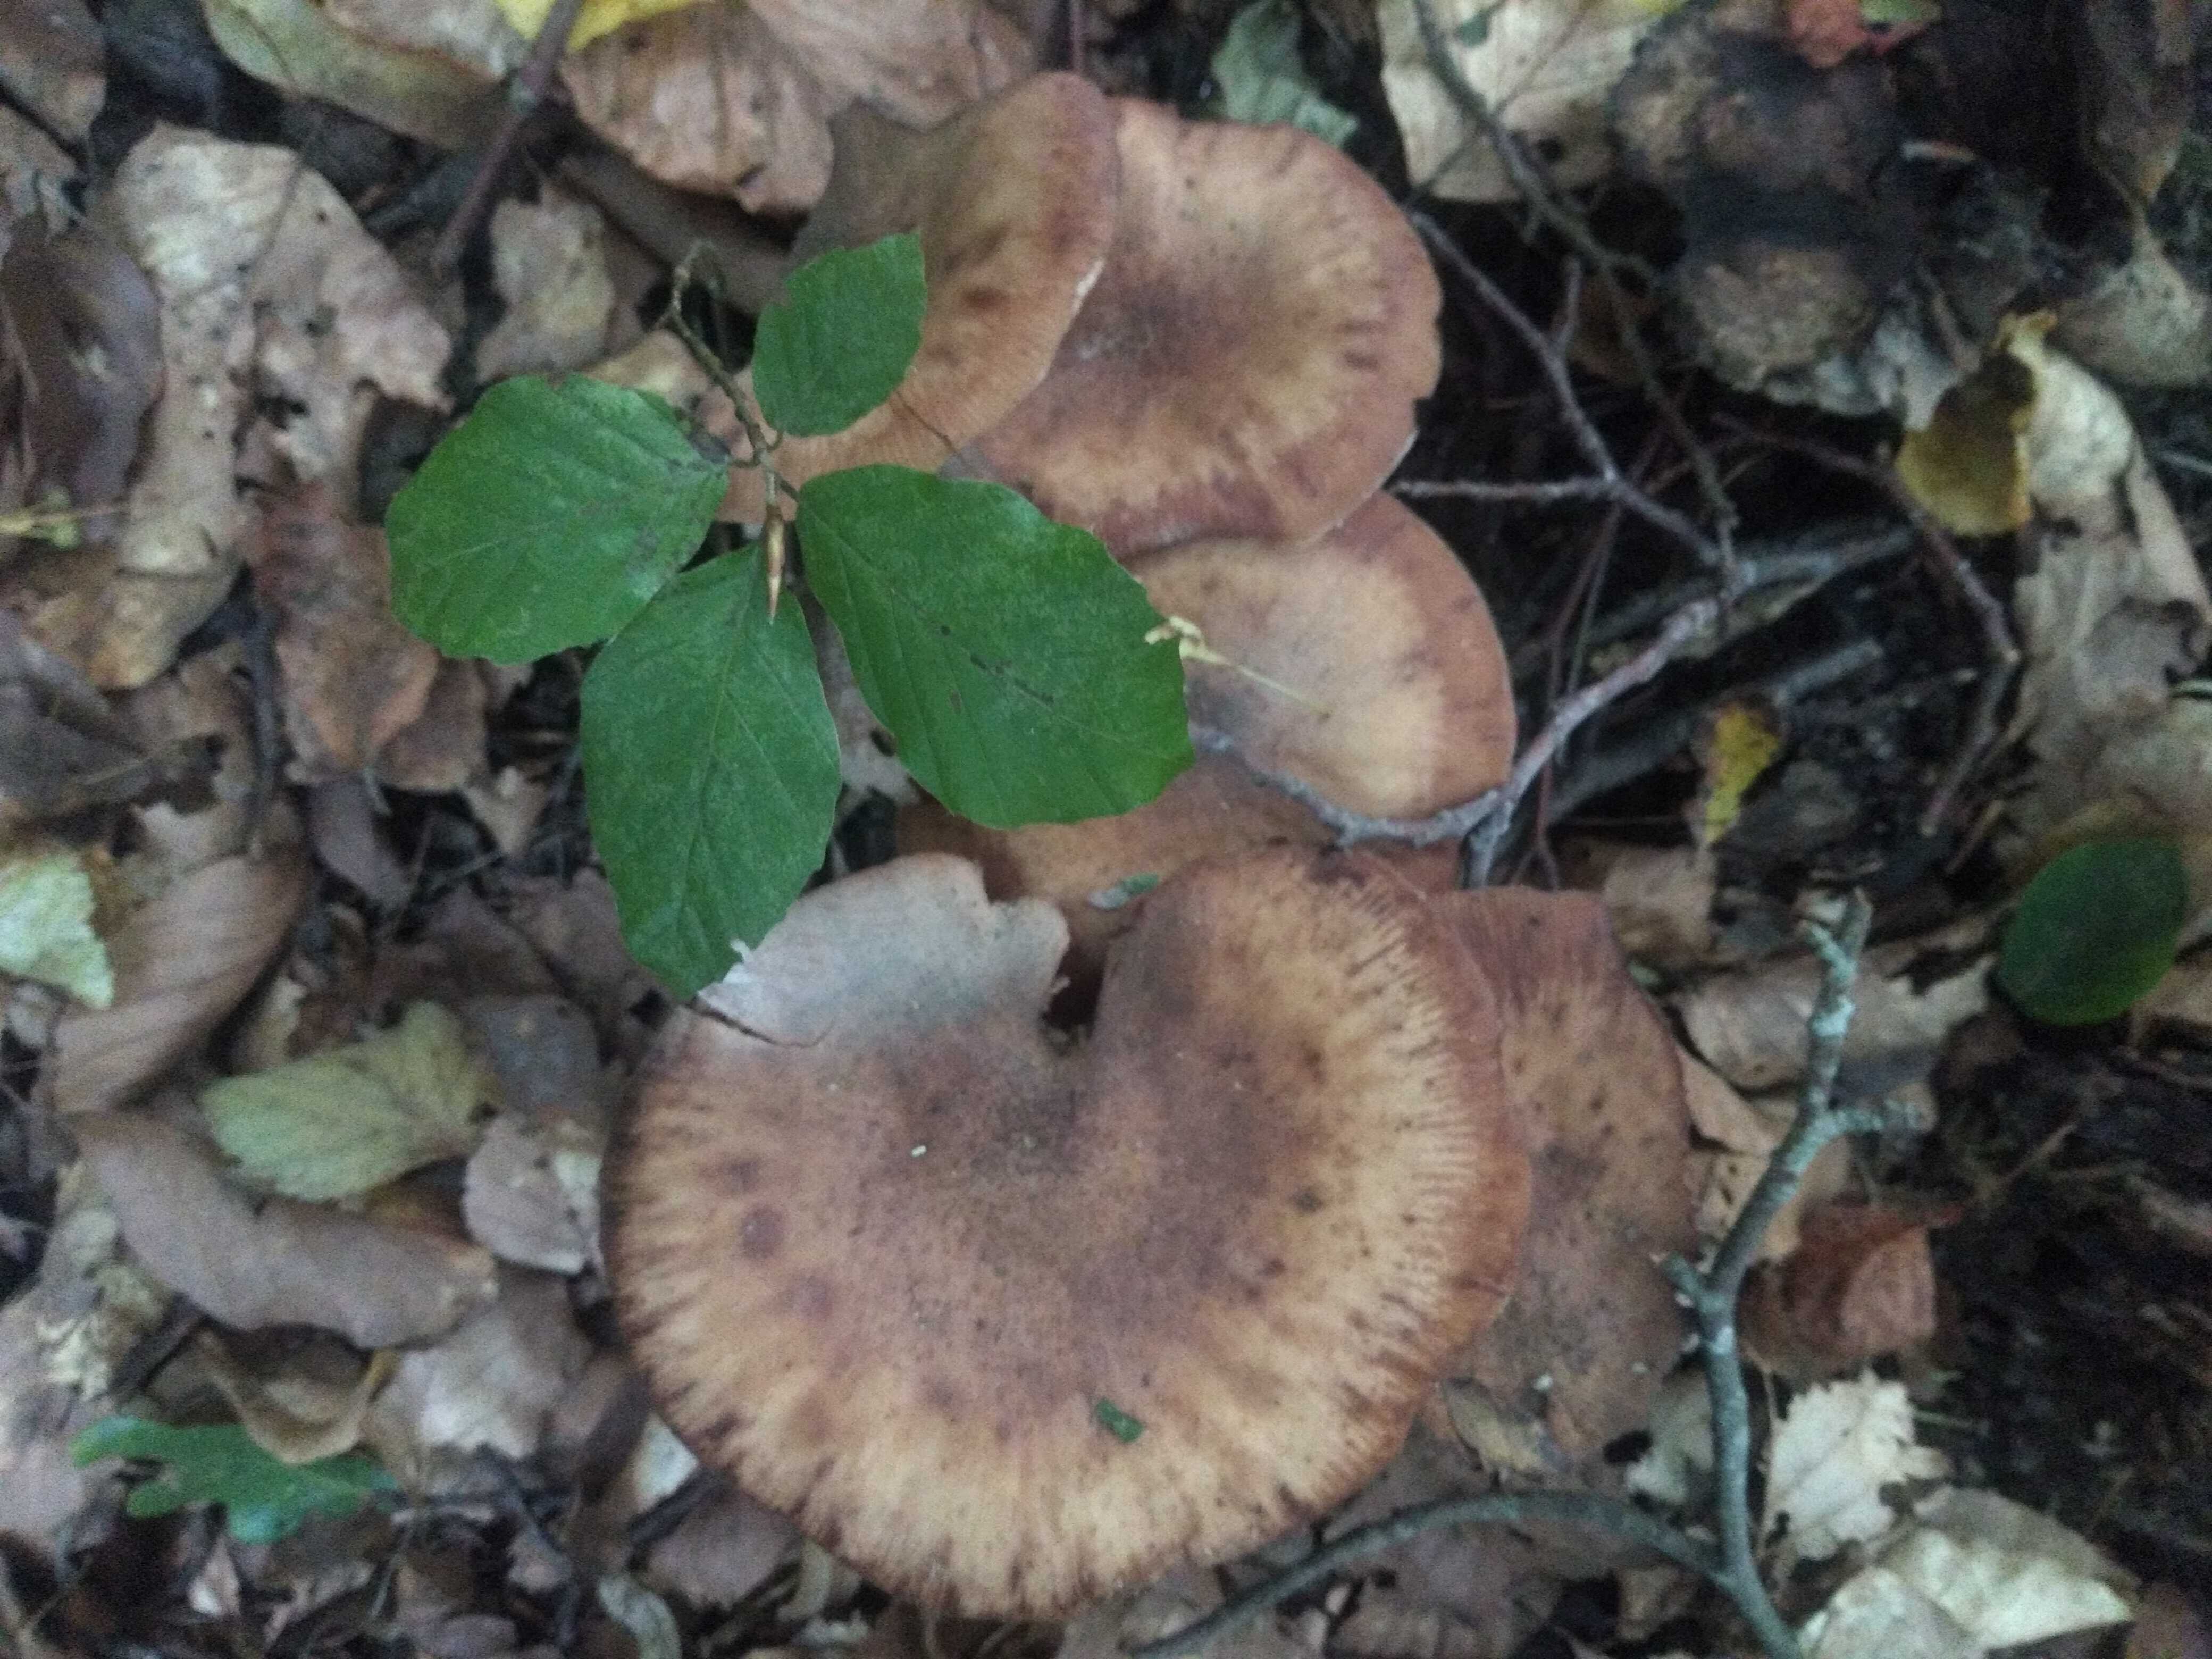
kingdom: Fungi
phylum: Basidiomycota
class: Agaricomycetes
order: Agaricales
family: Physalacriaceae
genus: Armillaria
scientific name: Armillaria lutea
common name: køllestokket honningsvamp
